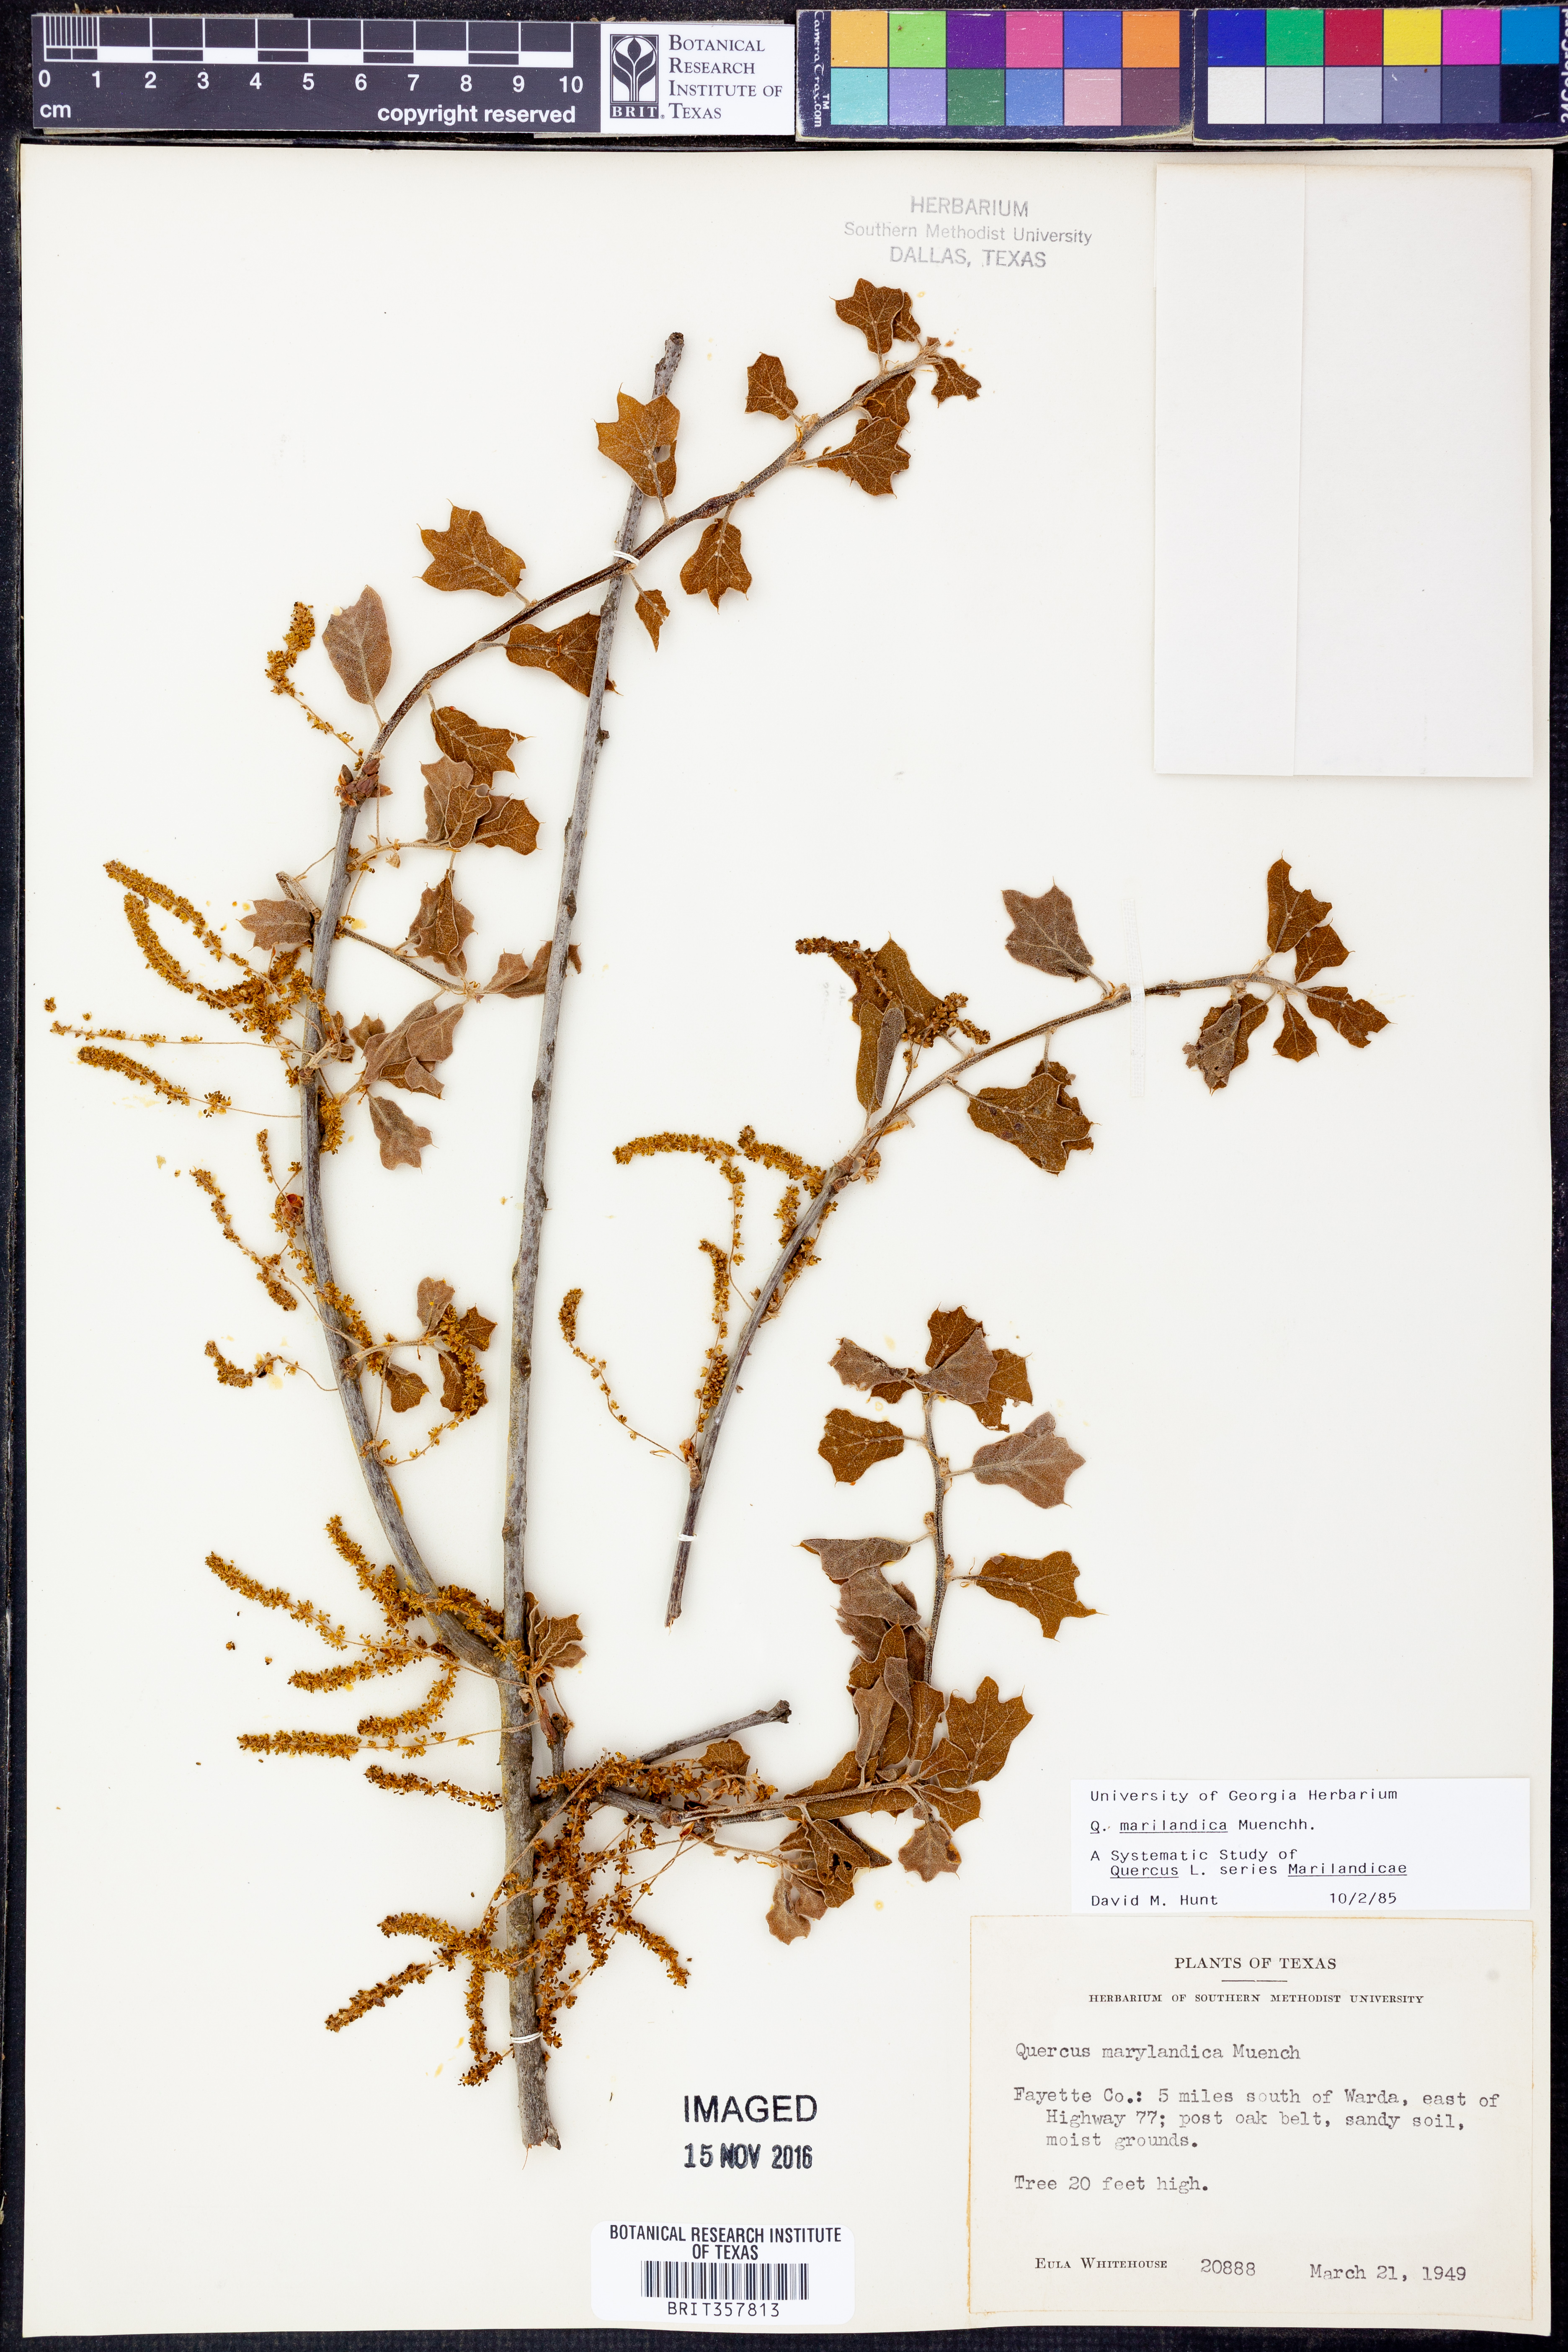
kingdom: Plantae
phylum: Tracheophyta
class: Magnoliopsida
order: Fagales
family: Fagaceae
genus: Quercus
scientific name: Quercus marilandica
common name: Blackjack oak
